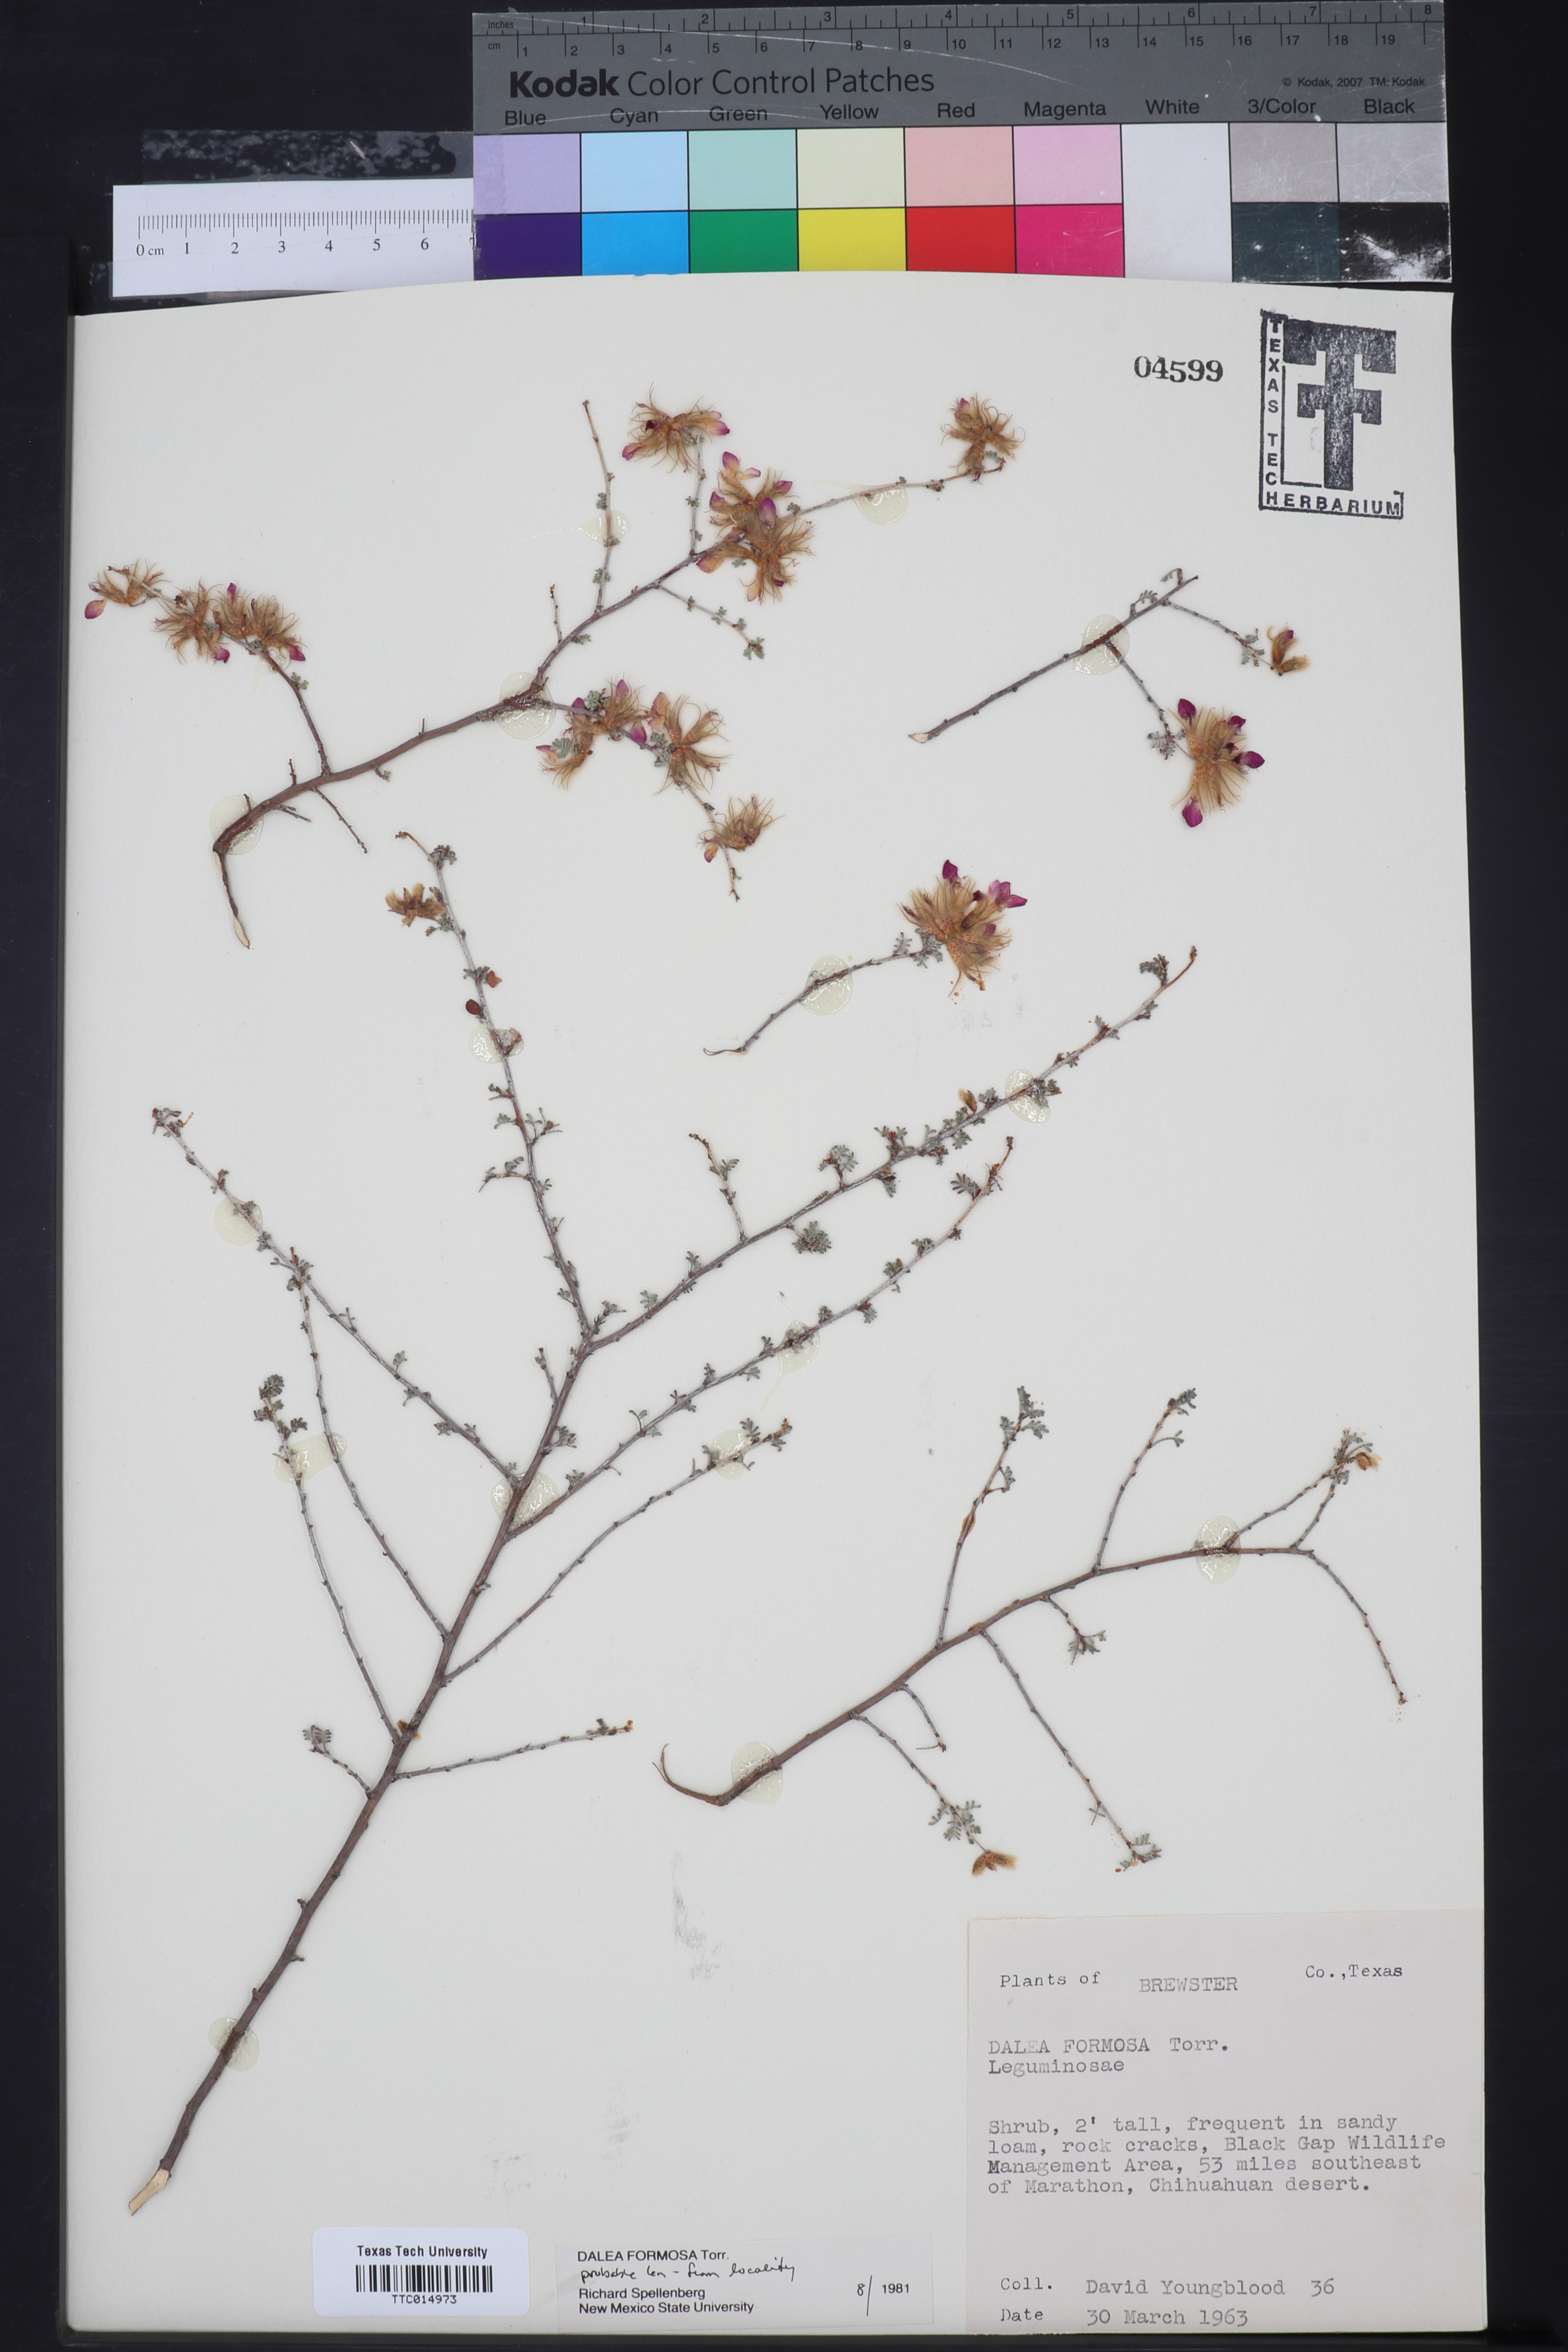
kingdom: Plantae
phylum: Tracheophyta
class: Magnoliopsida
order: Fabales
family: Fabaceae
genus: Dalea
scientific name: Dalea formosa
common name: Feather-plume dalea
